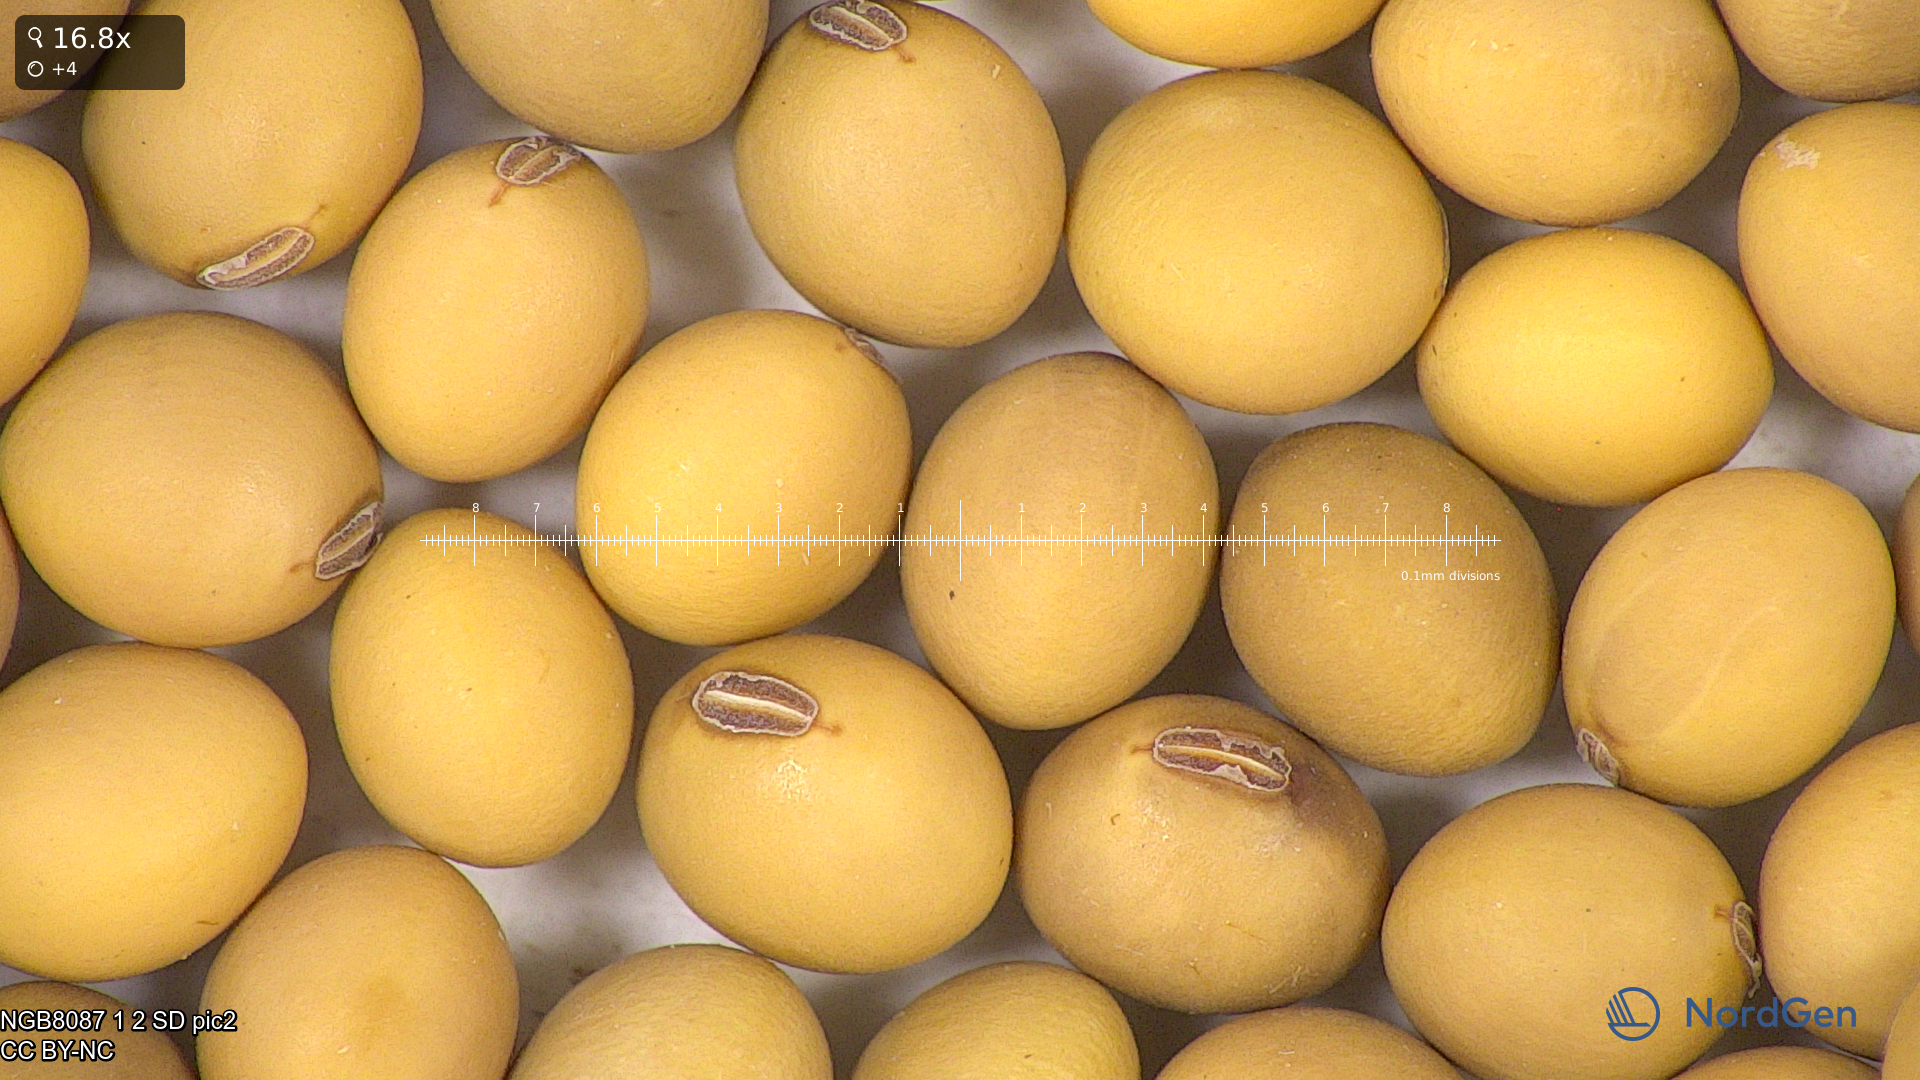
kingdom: Plantae
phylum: Tracheophyta
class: Magnoliopsida
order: Fabales
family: Fabaceae
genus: Glycine
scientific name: Glycine max
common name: Soya-bean
